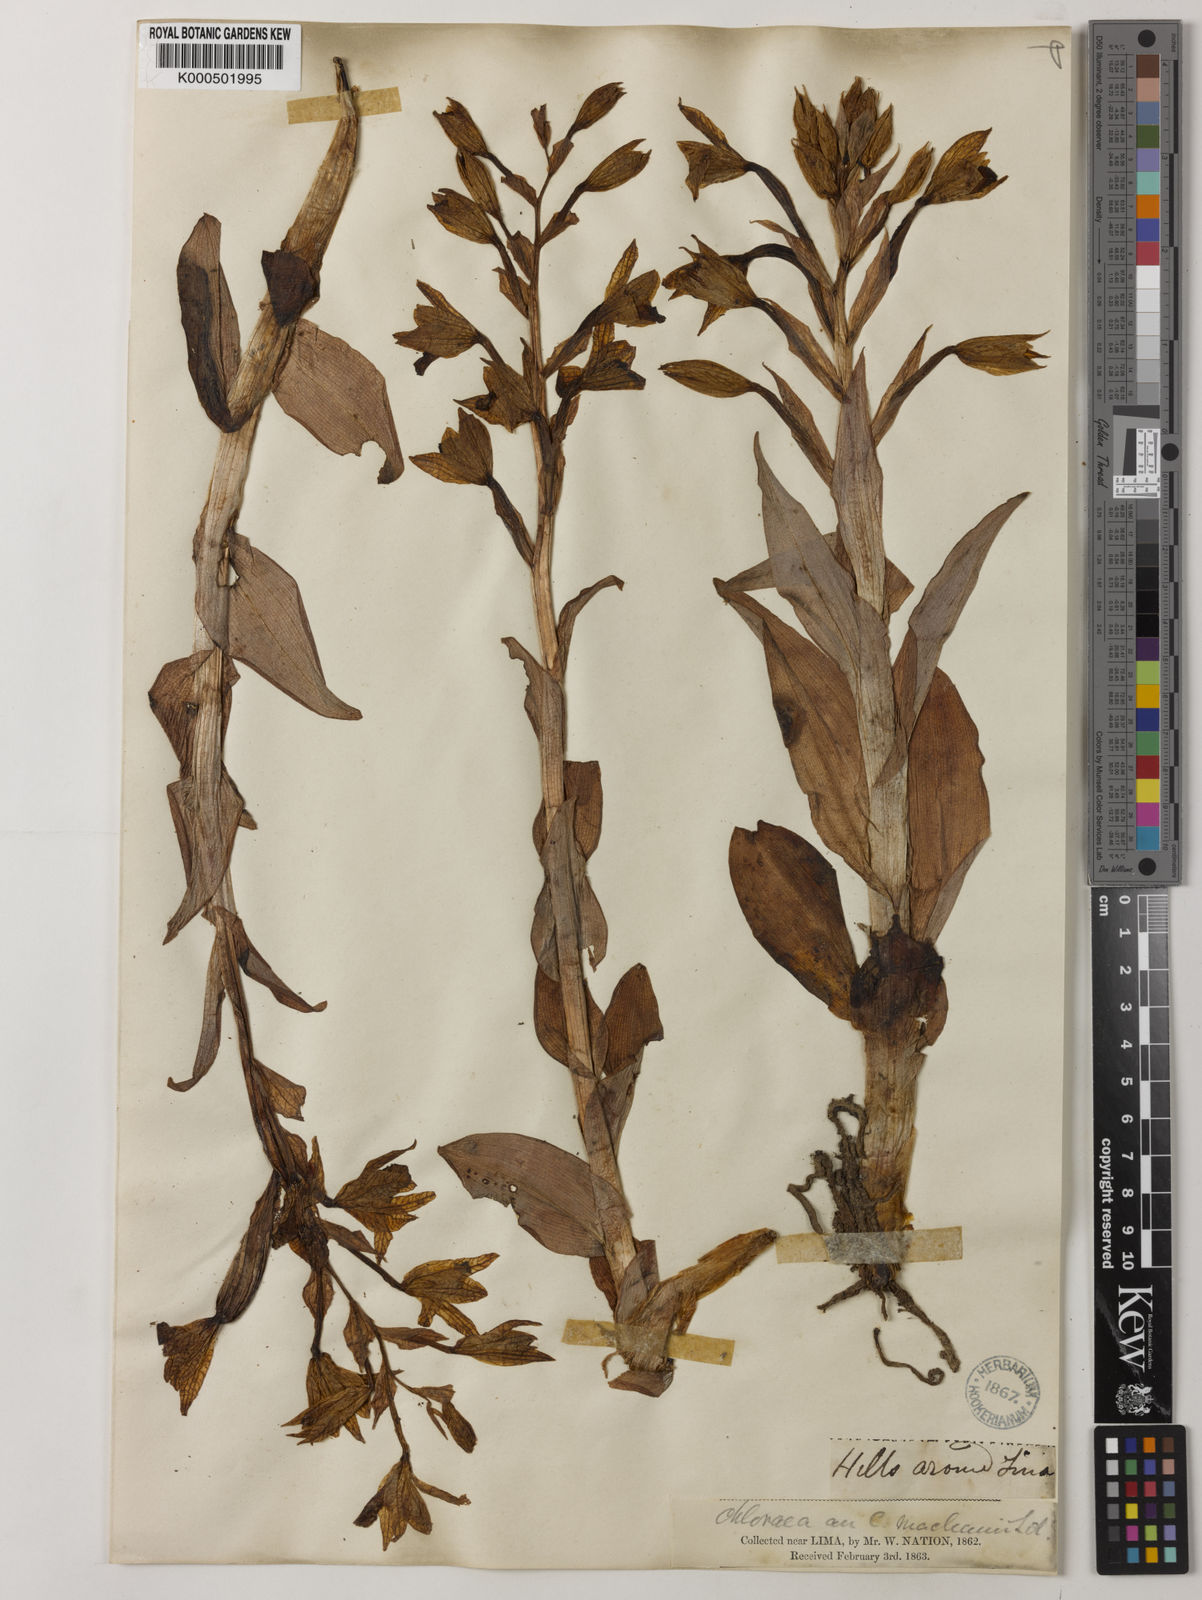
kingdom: Plantae
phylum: Tracheophyta
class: Liliopsida
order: Asparagales
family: Orchidaceae
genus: Chloraea
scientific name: Chloraea
